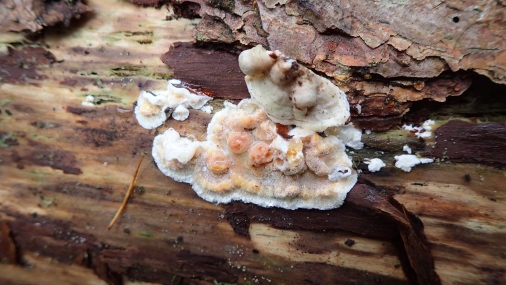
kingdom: Fungi
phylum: Basidiomycota
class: Agaricomycetes
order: Polyporales
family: Incrustoporiaceae
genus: Skeletocutis
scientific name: Skeletocutis amorpha
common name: orange krystalporesvamp
